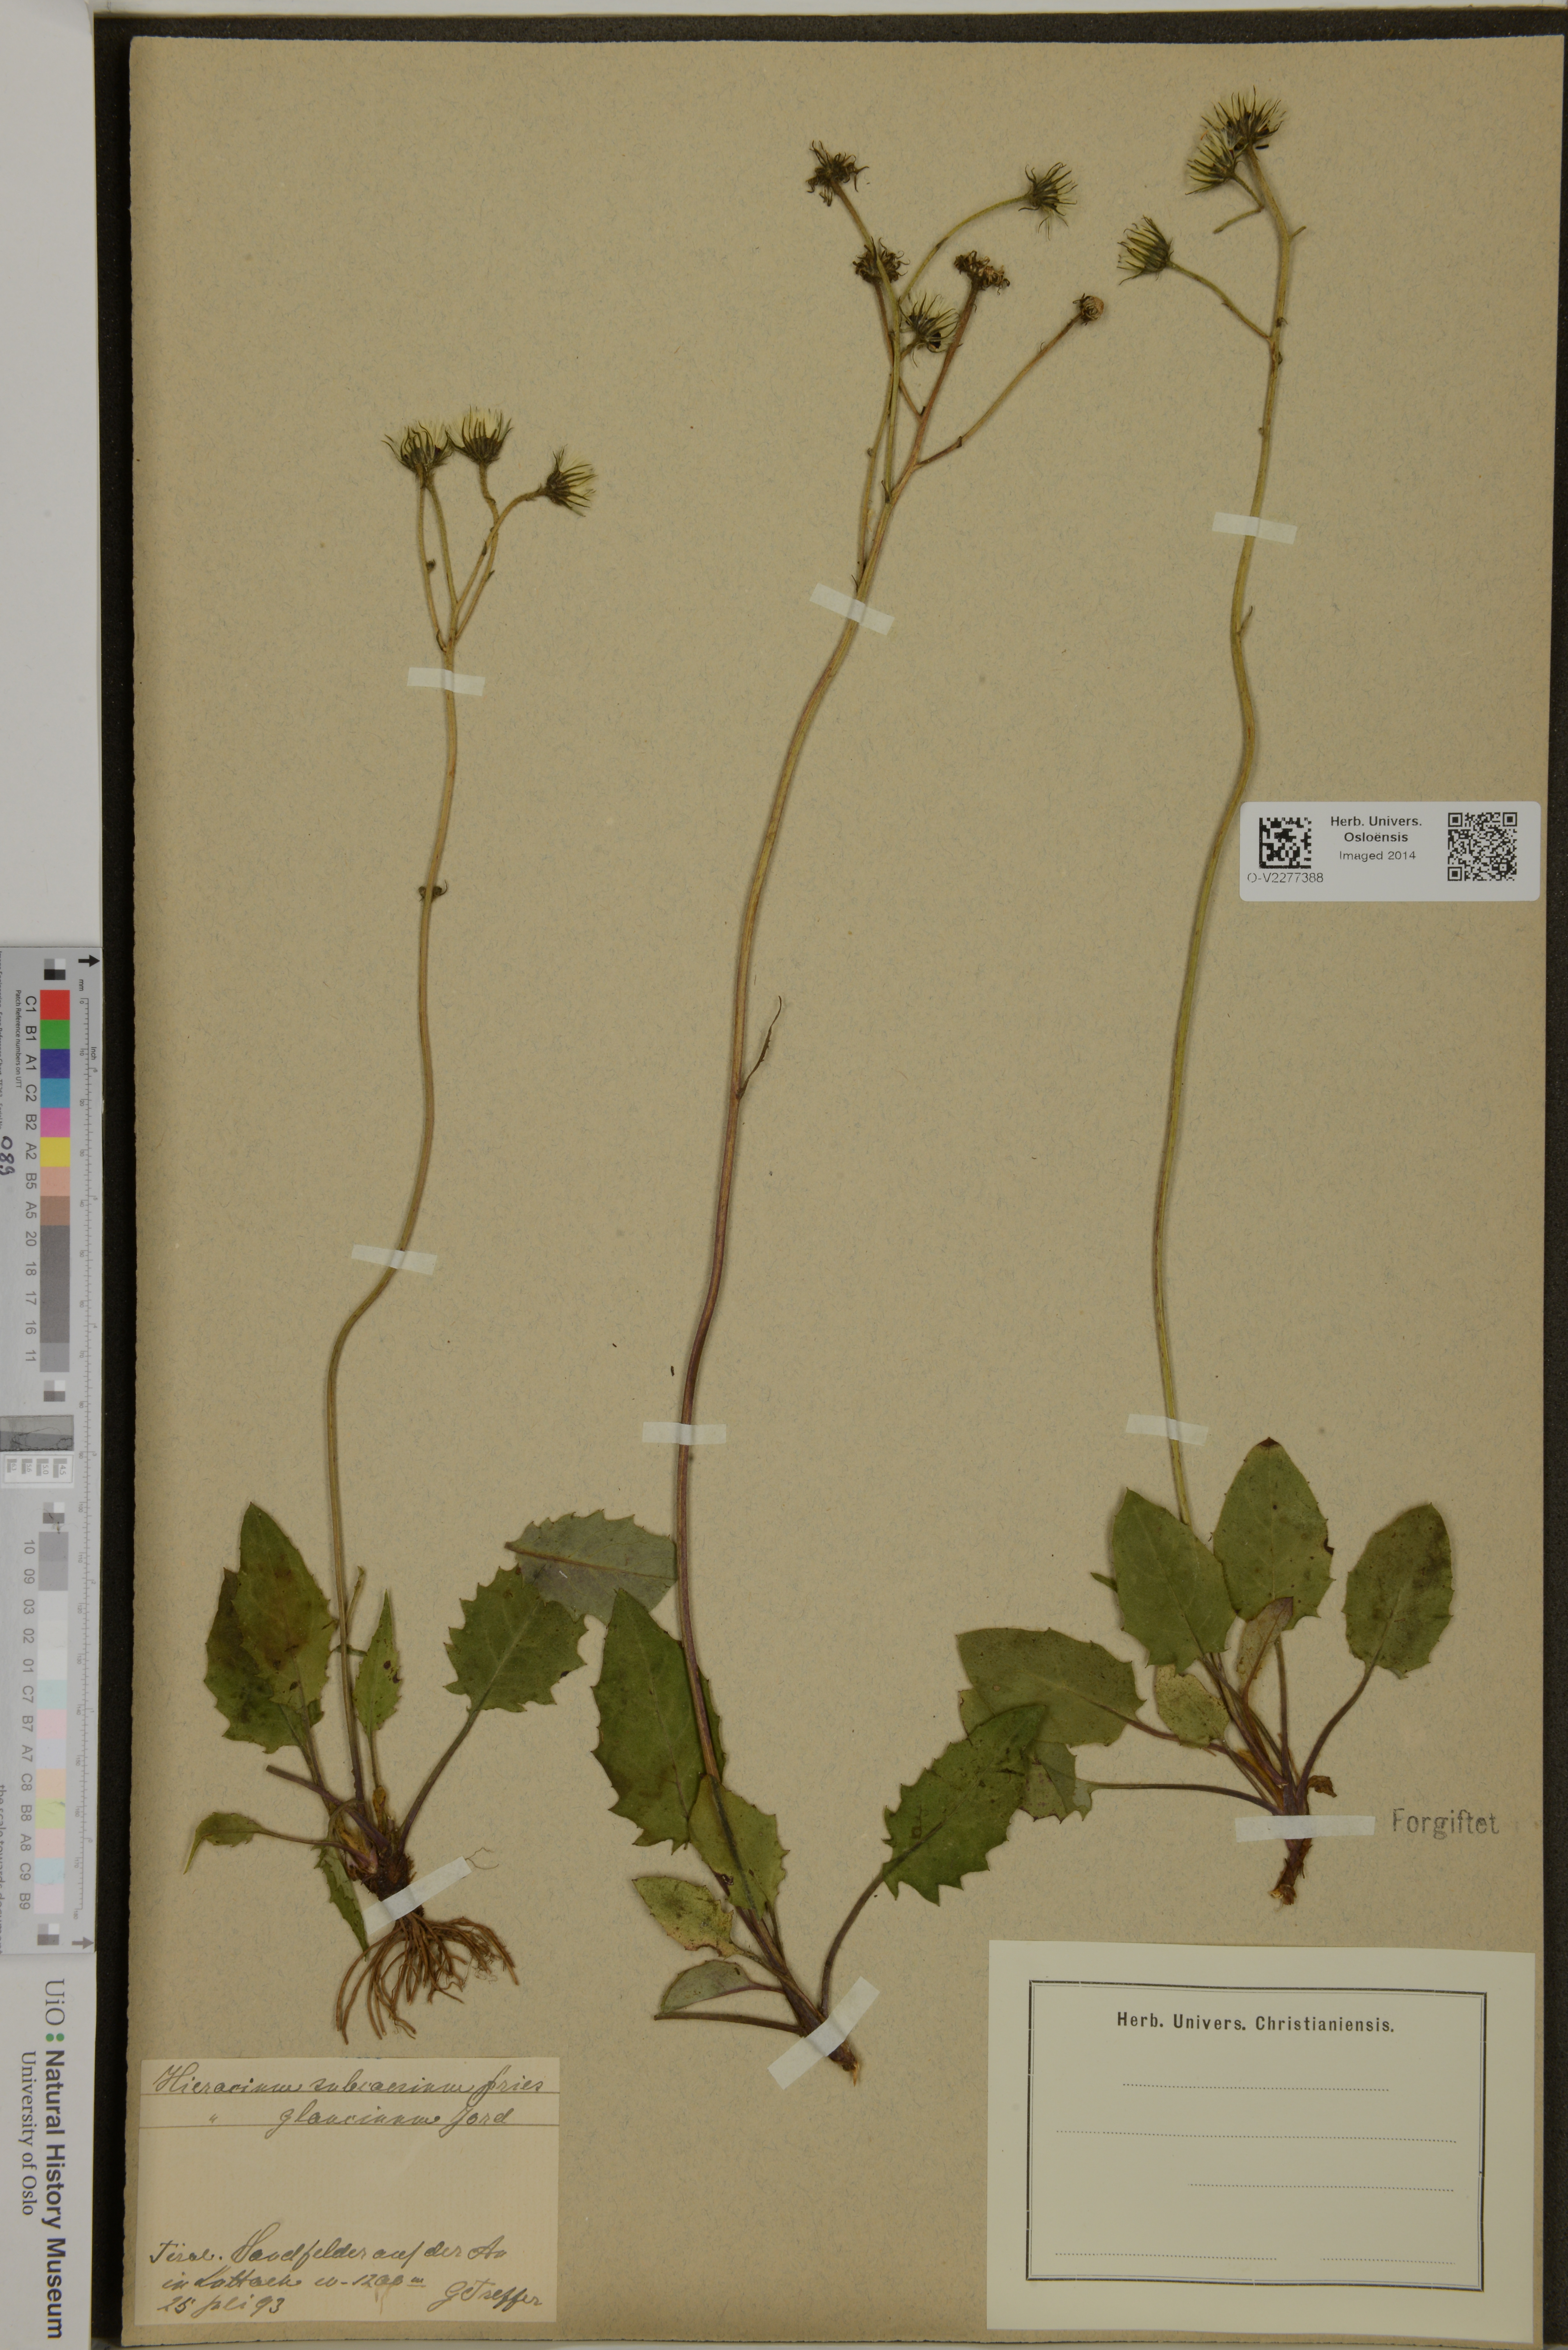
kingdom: Plantae
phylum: Tracheophyta
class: Magnoliopsida
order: Asterales
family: Asteraceae
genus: Hieracium
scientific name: Hieracium subcaesium
